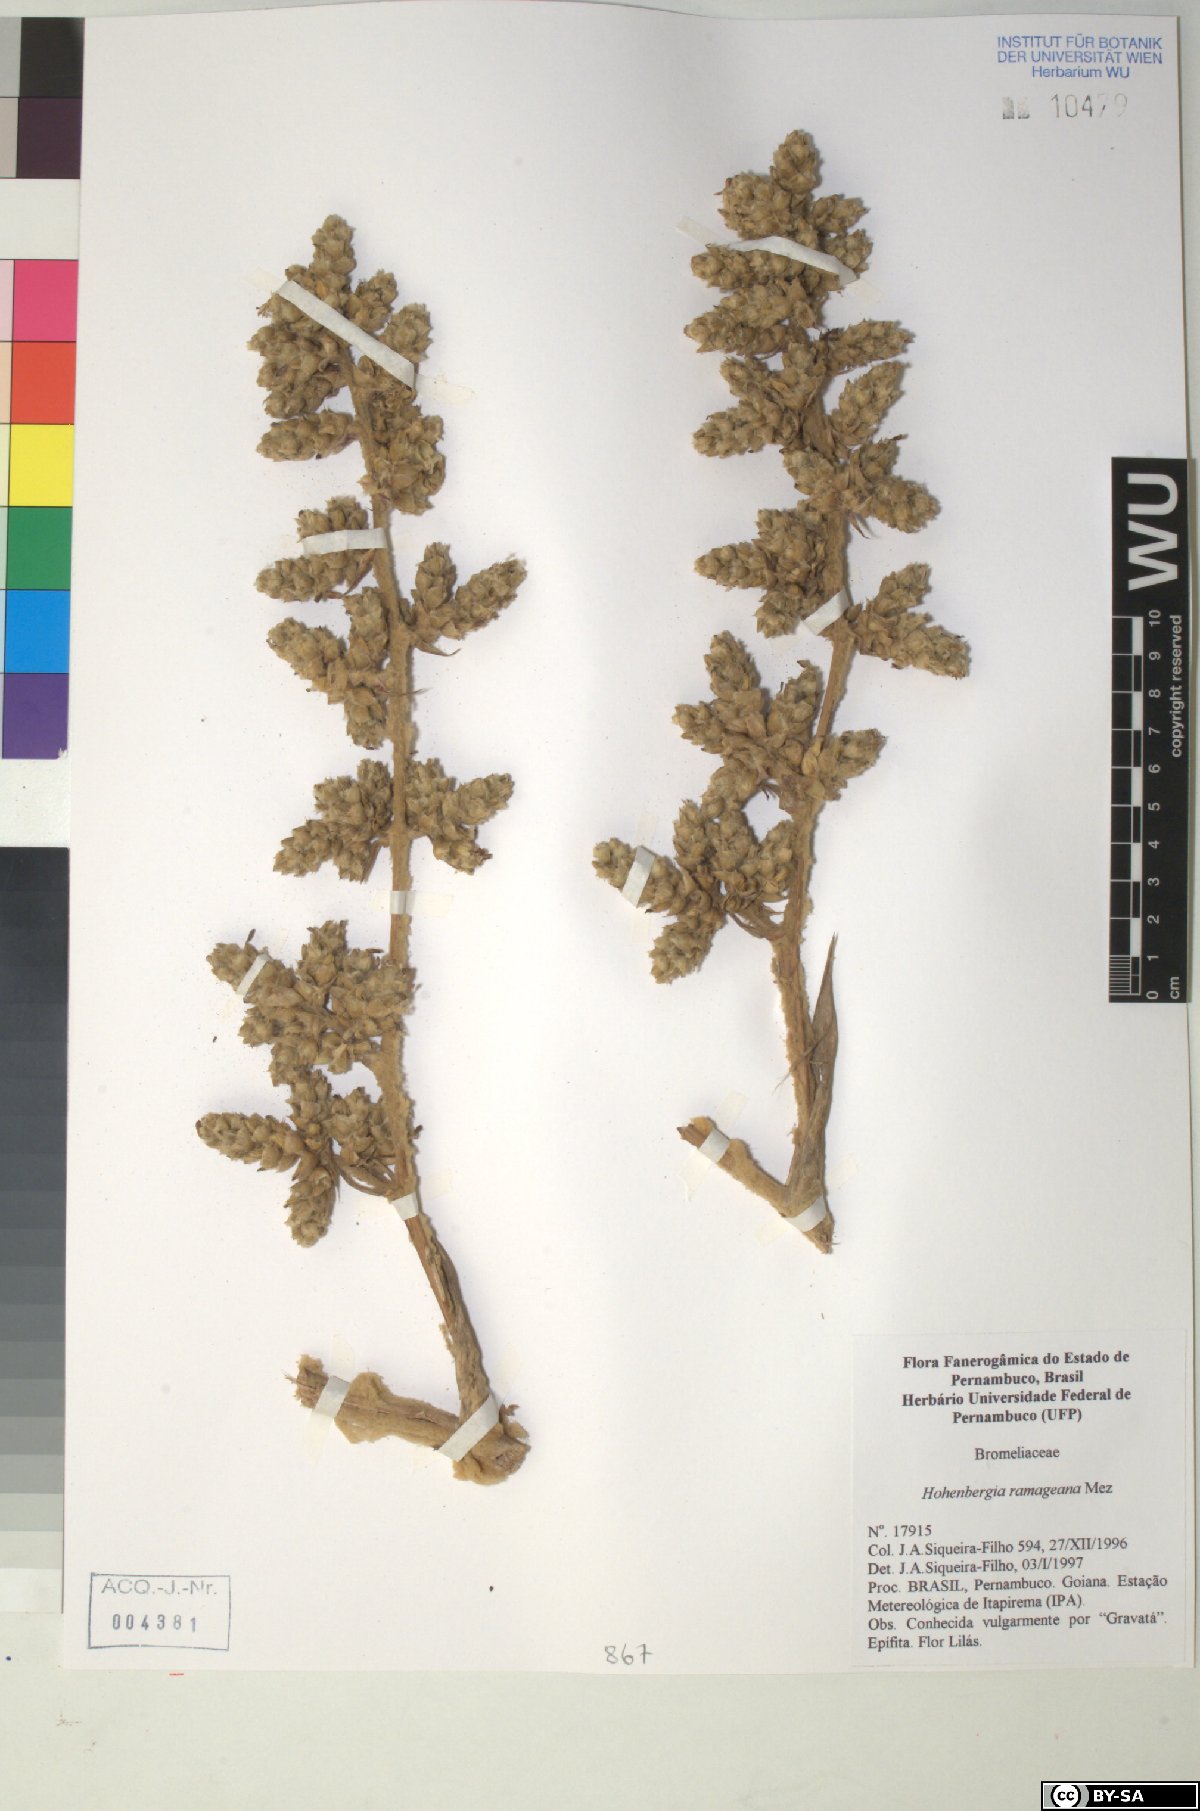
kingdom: Plantae
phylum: Tracheophyta
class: Liliopsida
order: Poales
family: Bromeliaceae
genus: Hohenbergia
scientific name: Hohenbergia ridleyi
